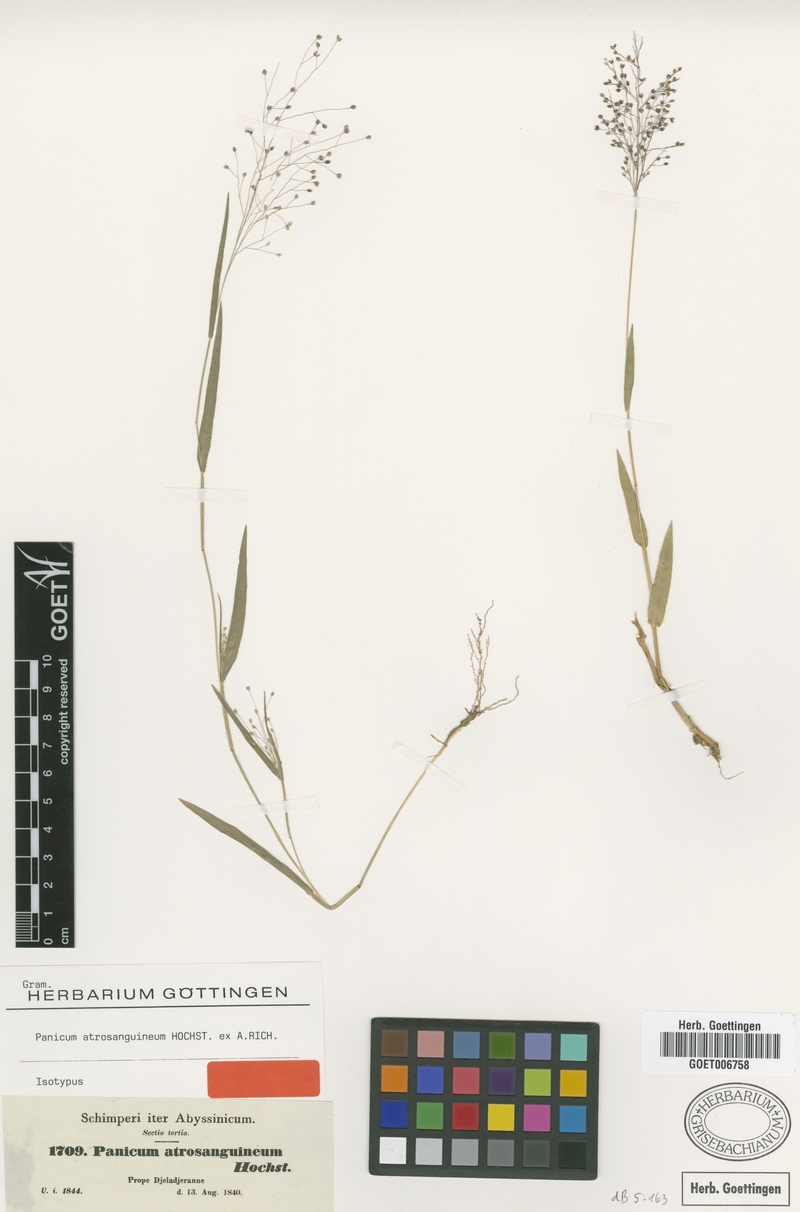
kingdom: Plantae
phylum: Tracheophyta
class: Liliopsida
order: Poales
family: Poaceae
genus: Panicum
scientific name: Panicum atrosanguineum
